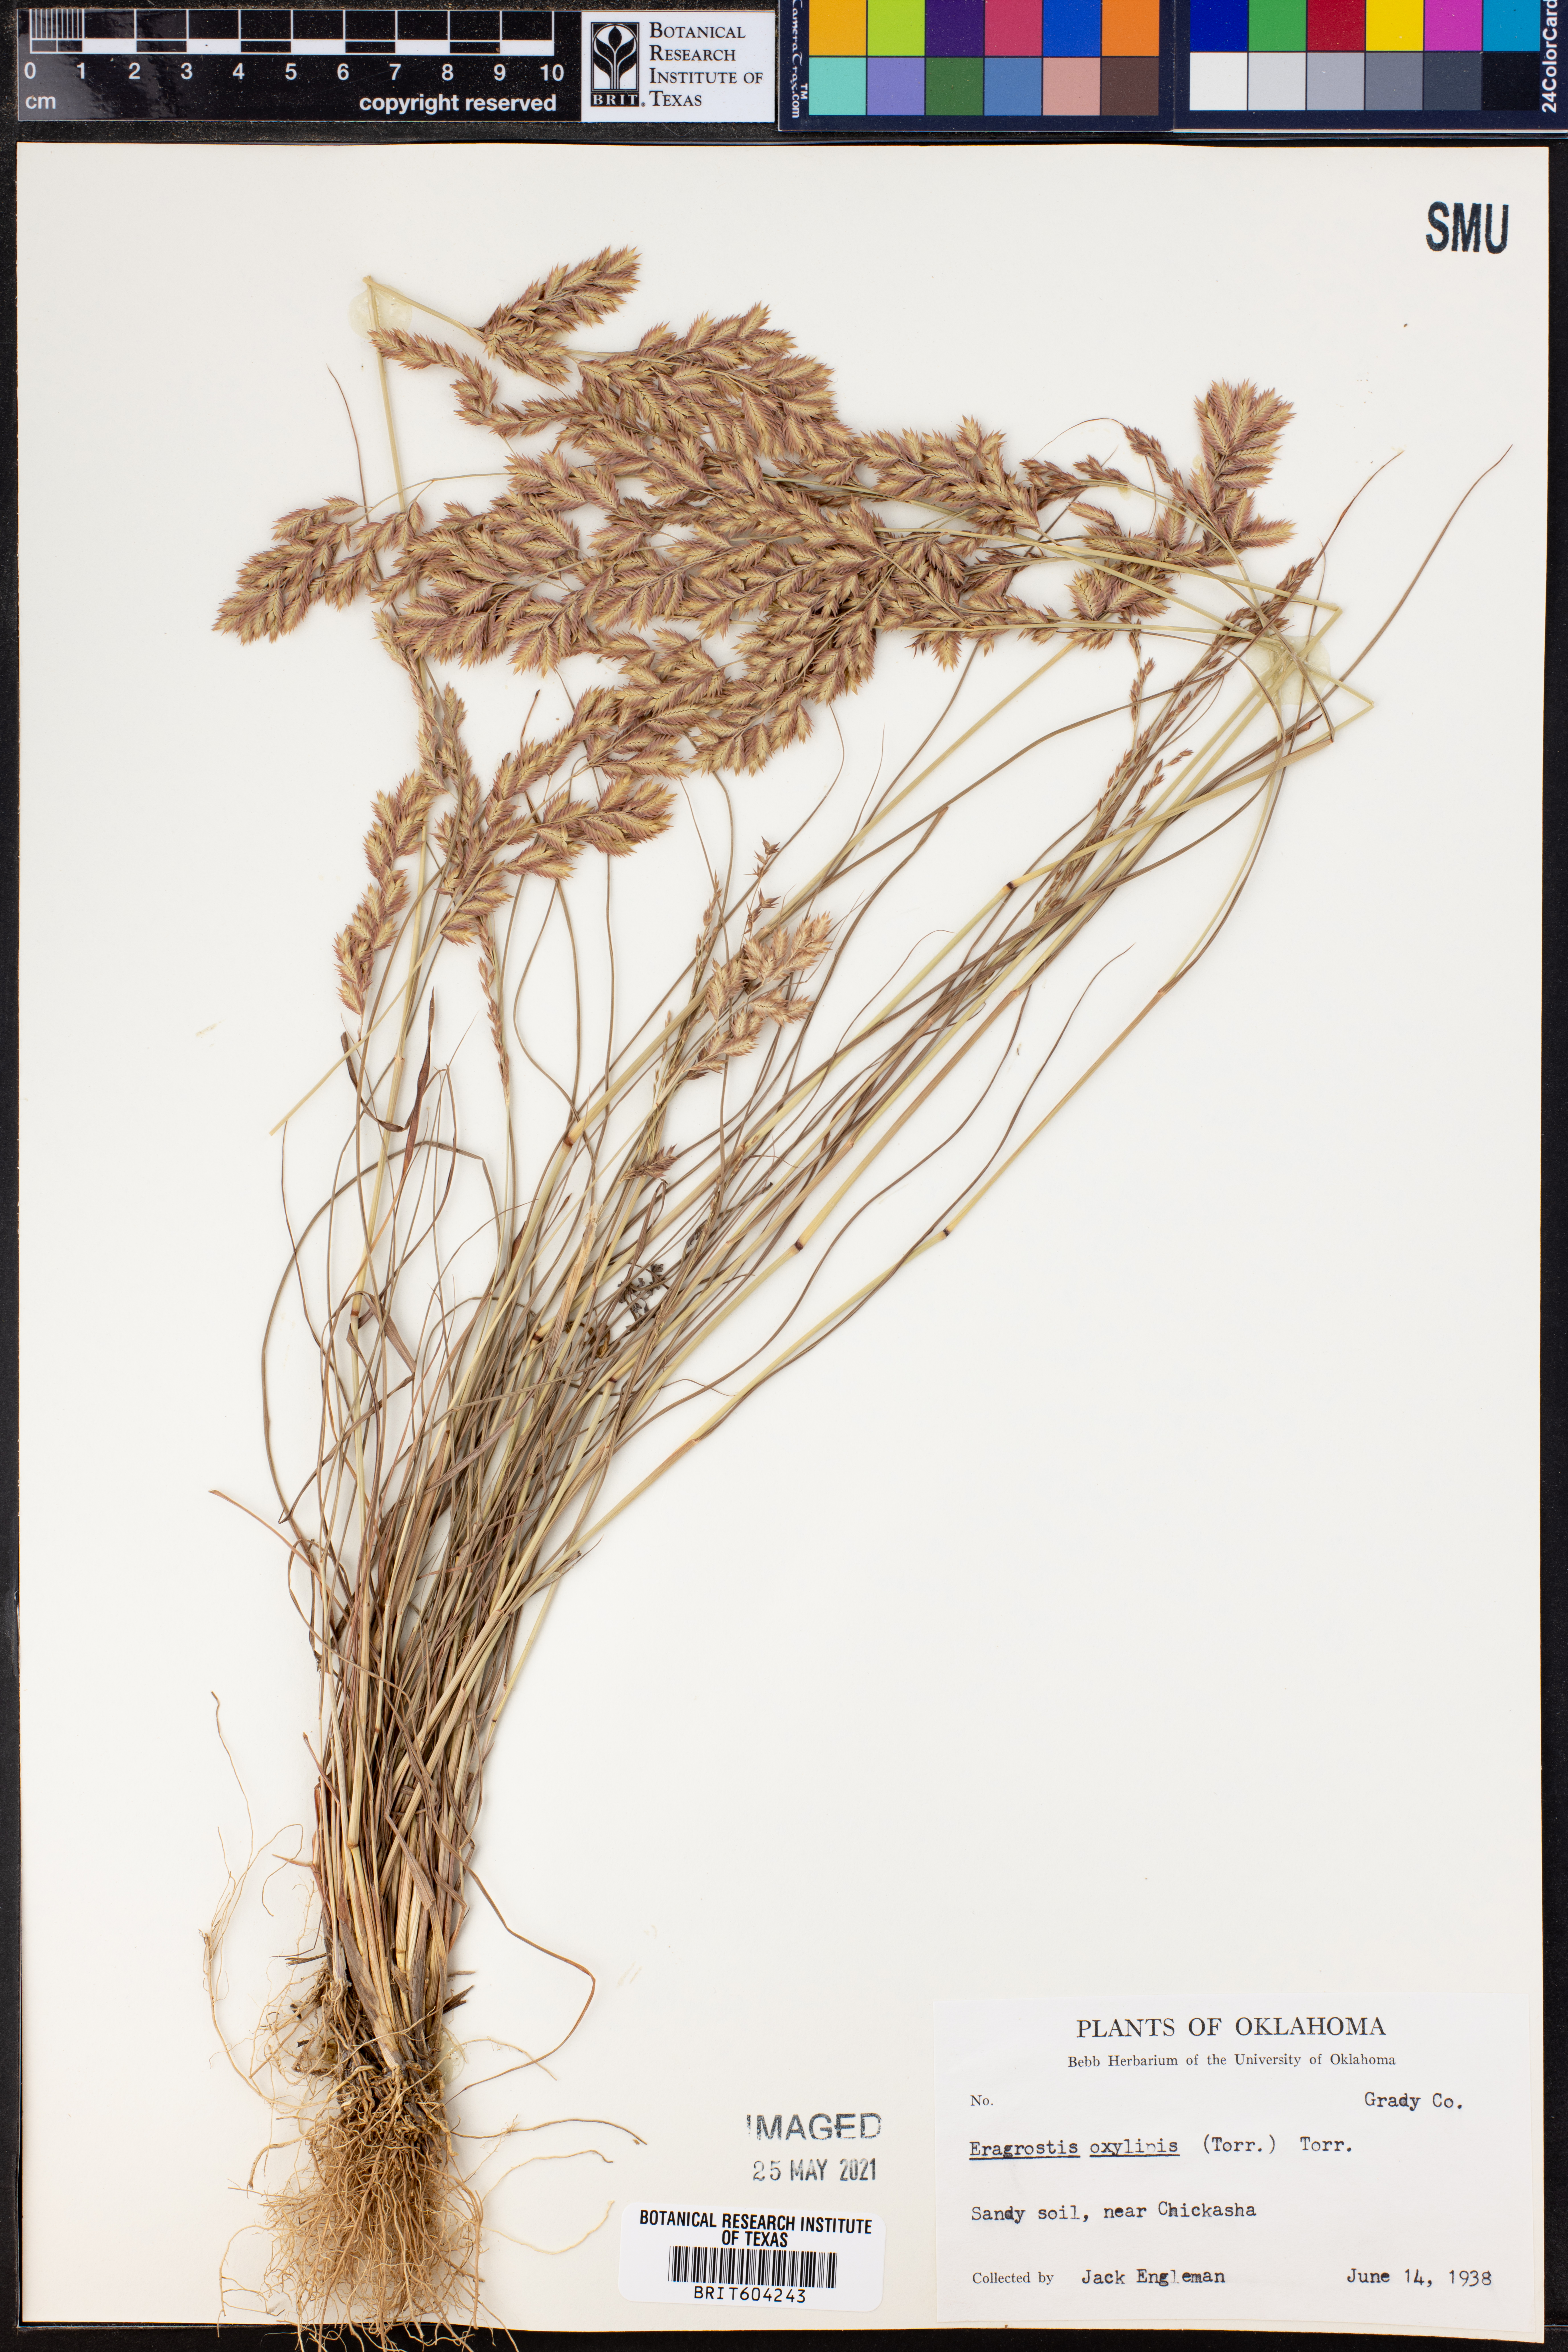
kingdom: Plantae
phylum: Tracheophyta
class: Liliopsida
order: Poales
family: Poaceae
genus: Eragrostis
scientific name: Eragrostis secundiflora
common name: Red love grass
